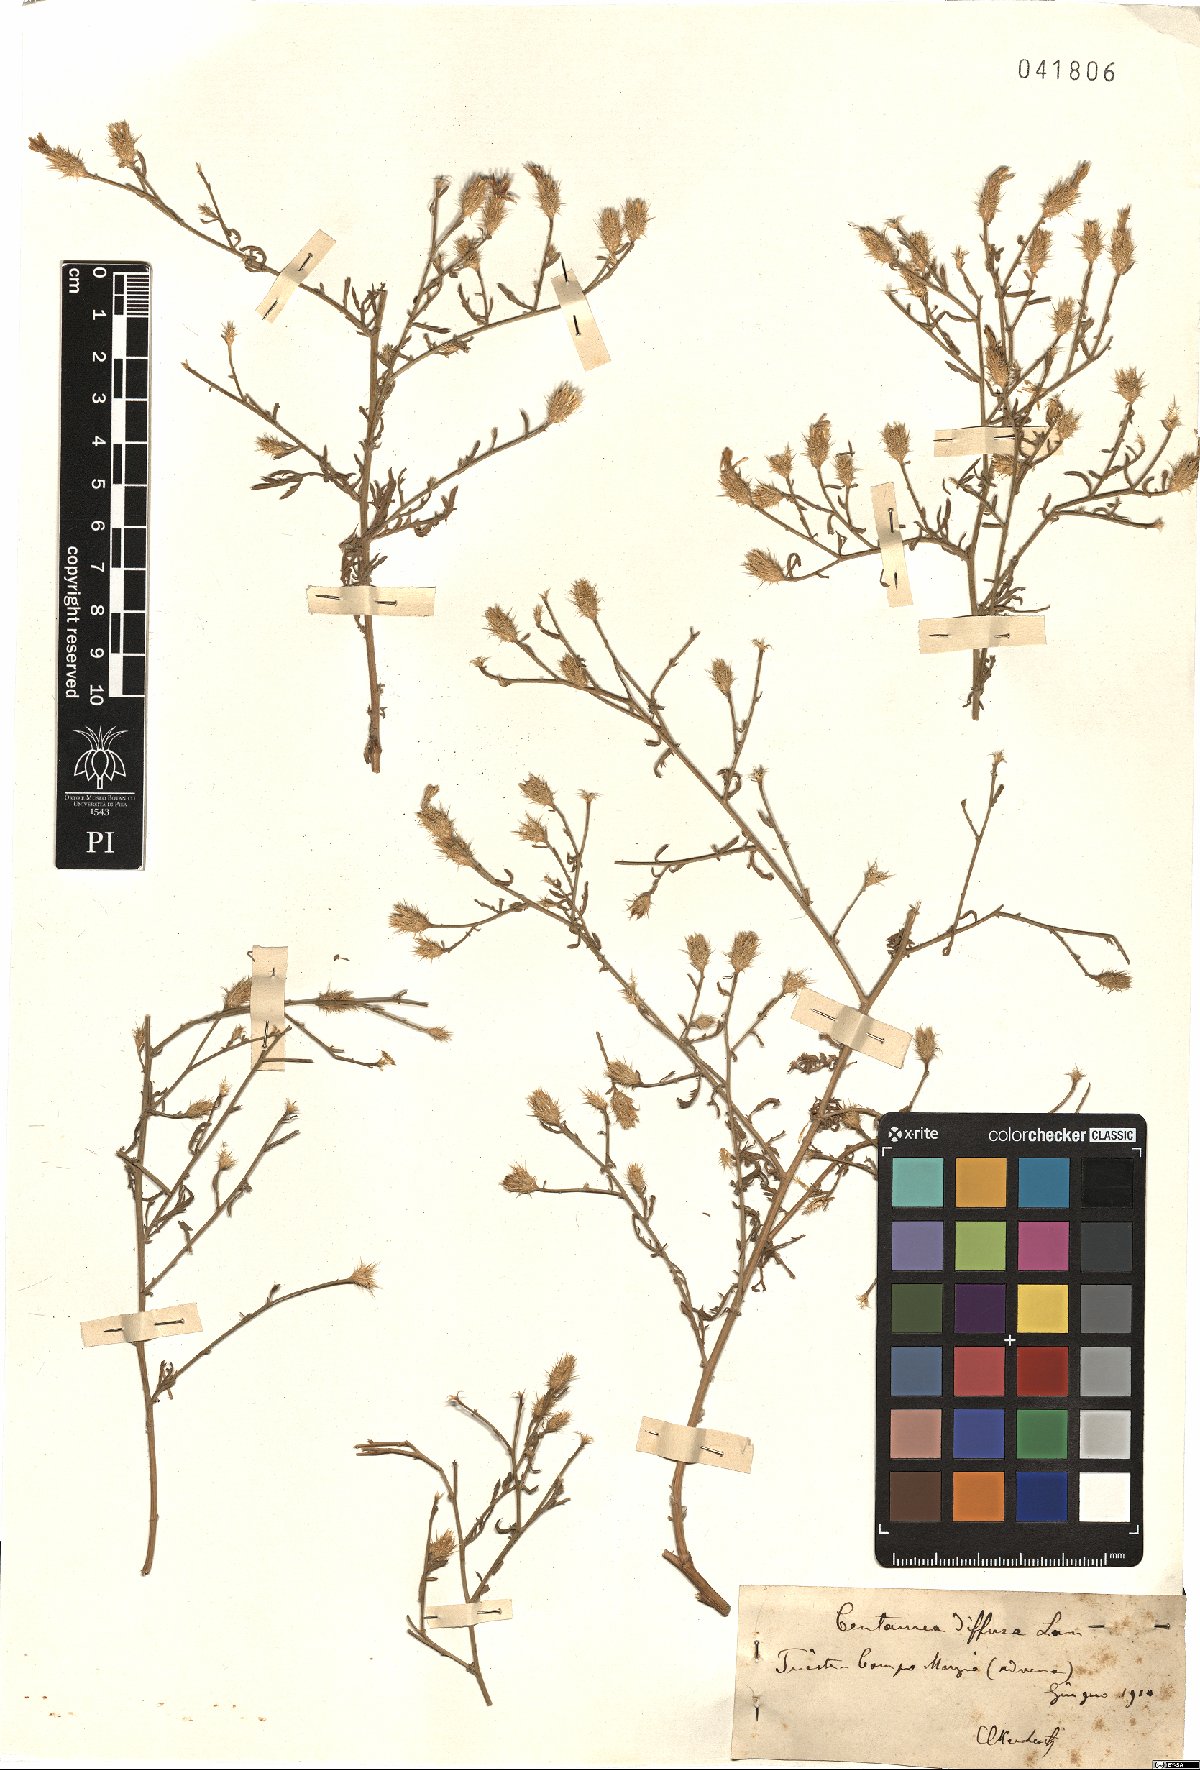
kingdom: Plantae
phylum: Tracheophyta
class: Magnoliopsida
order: Asterales
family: Asteraceae
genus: Centaurea
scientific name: Centaurea diffusa
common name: Diffuse knapweed
